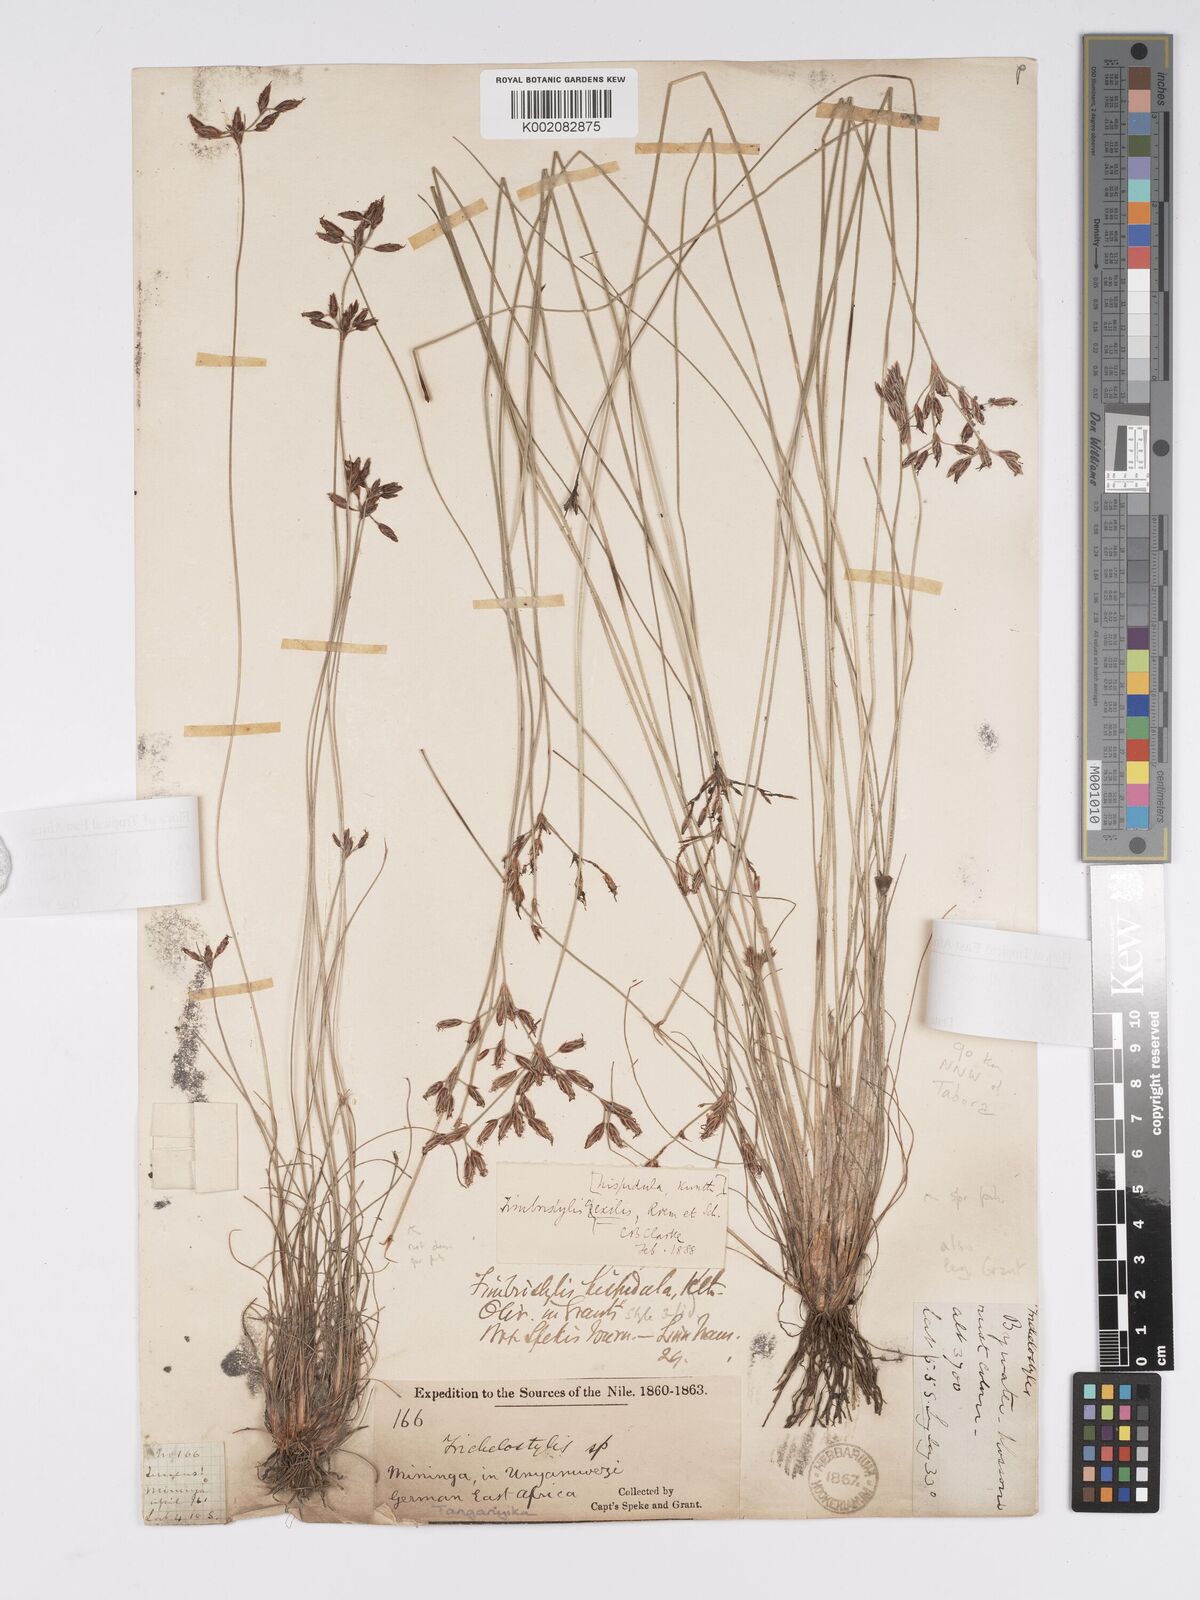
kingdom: Plantae
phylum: Tracheophyta
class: Liliopsida
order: Poales
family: Cyperaceae
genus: Bulbostylis
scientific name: Bulbostylis hispidula
